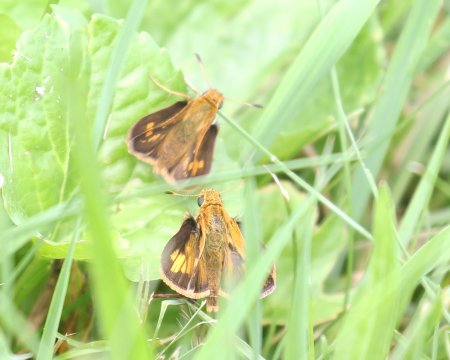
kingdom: Animalia
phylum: Arthropoda
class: Insecta
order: Lepidoptera
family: Hesperiidae
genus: Polites
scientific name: Polites coras
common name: Peck's Skipper
